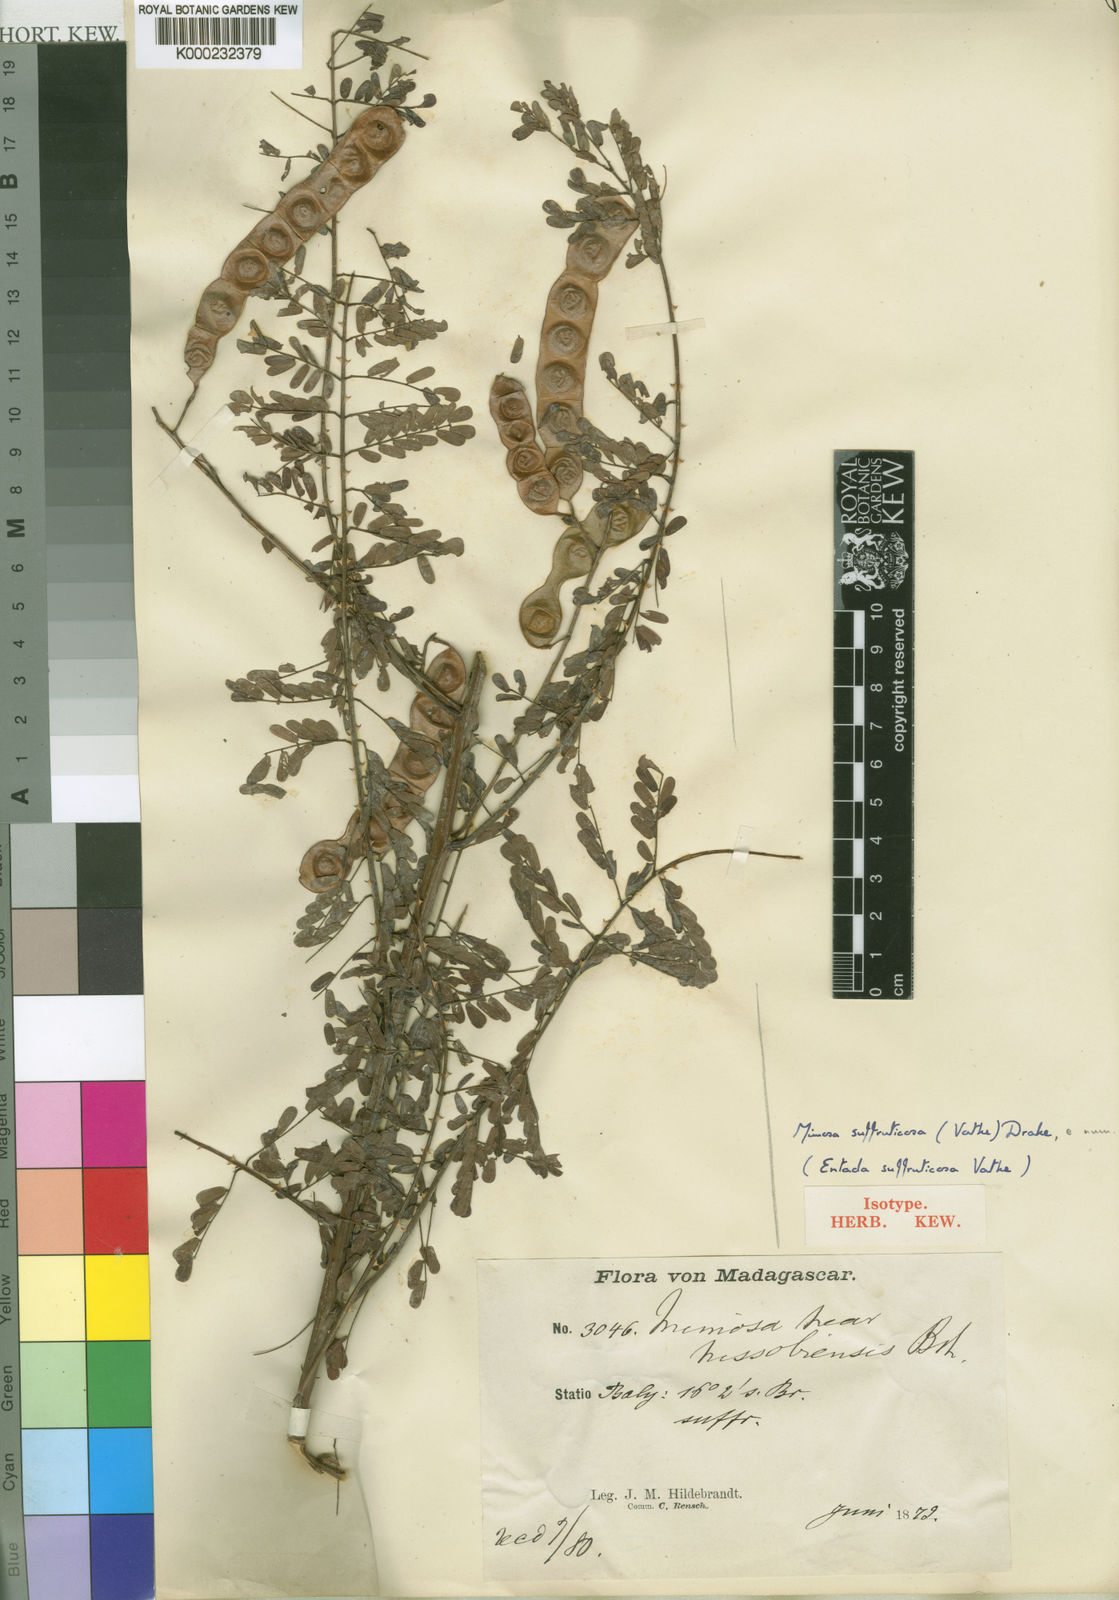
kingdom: Plantae
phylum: Tracheophyta
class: Magnoliopsida
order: Fabales
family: Fabaceae
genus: Mimosa
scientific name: Mimosa suffruticosa
